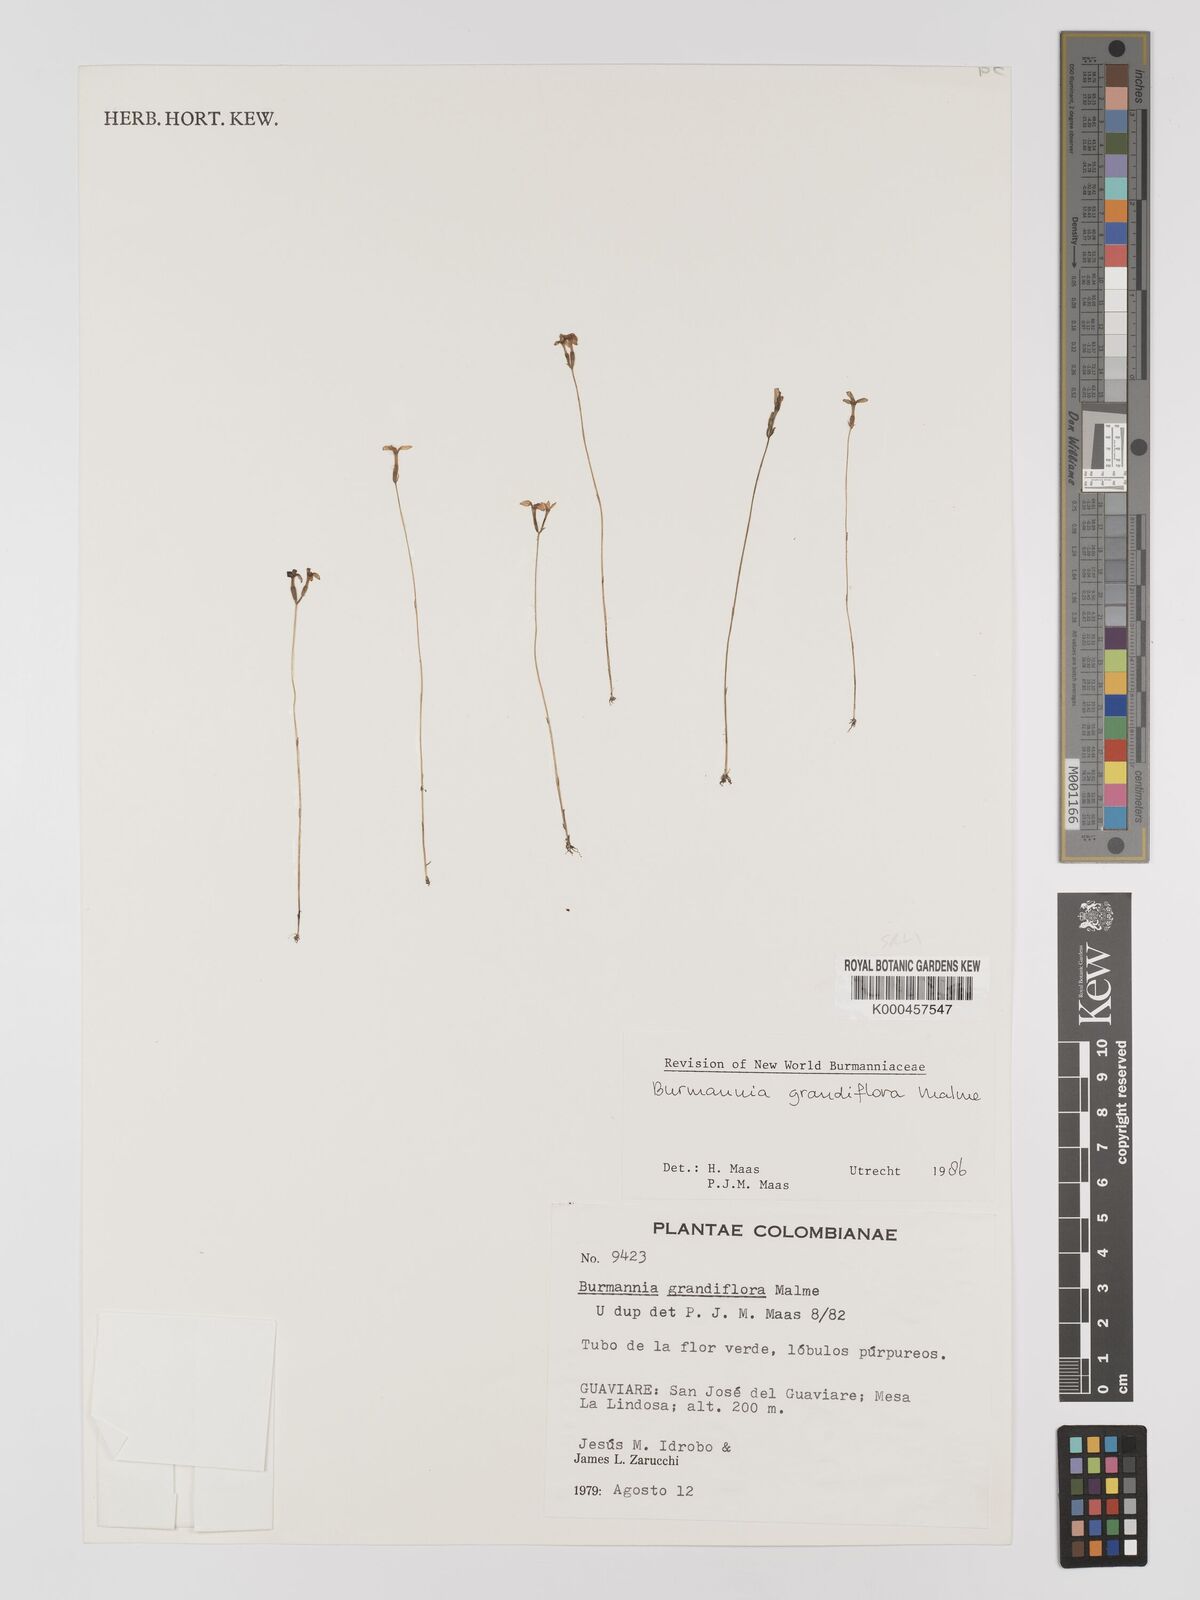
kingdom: Plantae
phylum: Tracheophyta
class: Liliopsida
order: Dioscoreales
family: Burmanniaceae
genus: Burmannia
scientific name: Burmannia grandiflora
